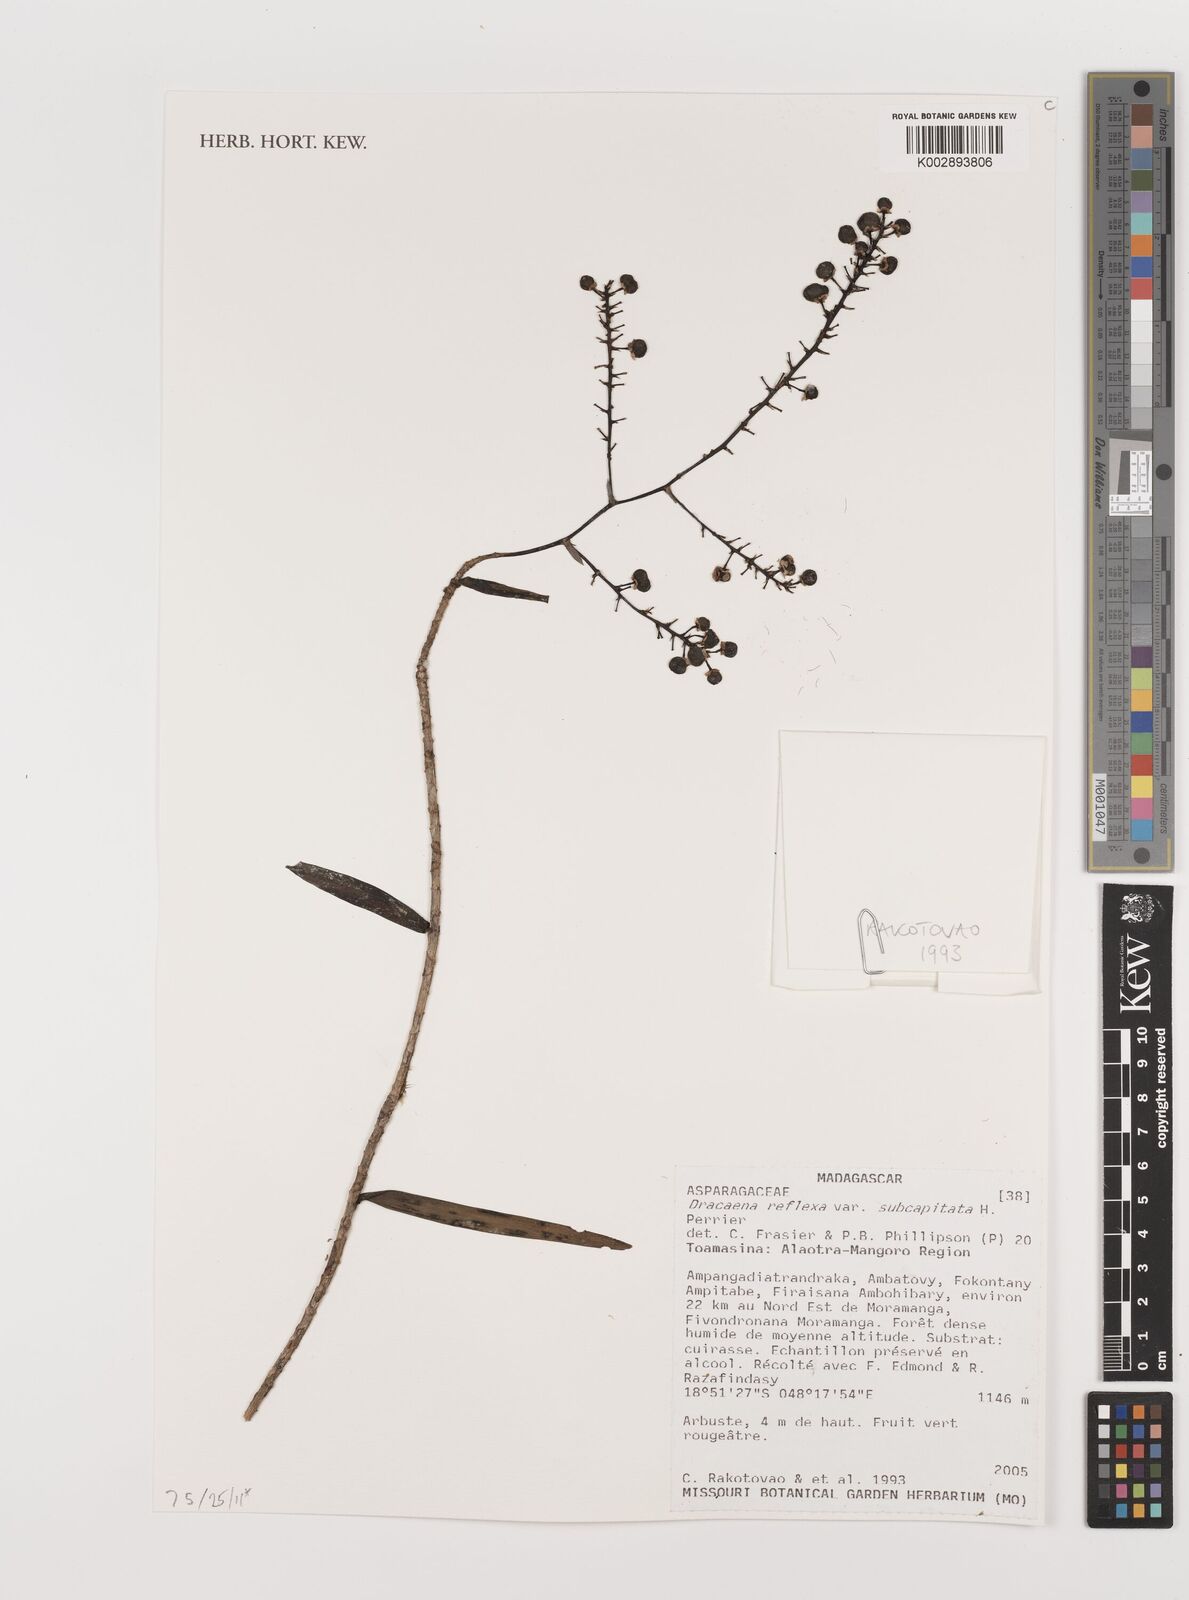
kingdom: Plantae
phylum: Tracheophyta
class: Liliopsida
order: Asparagales
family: Asparagaceae
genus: Dracaena
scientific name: Dracaena reflexa
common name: Song-of-india
